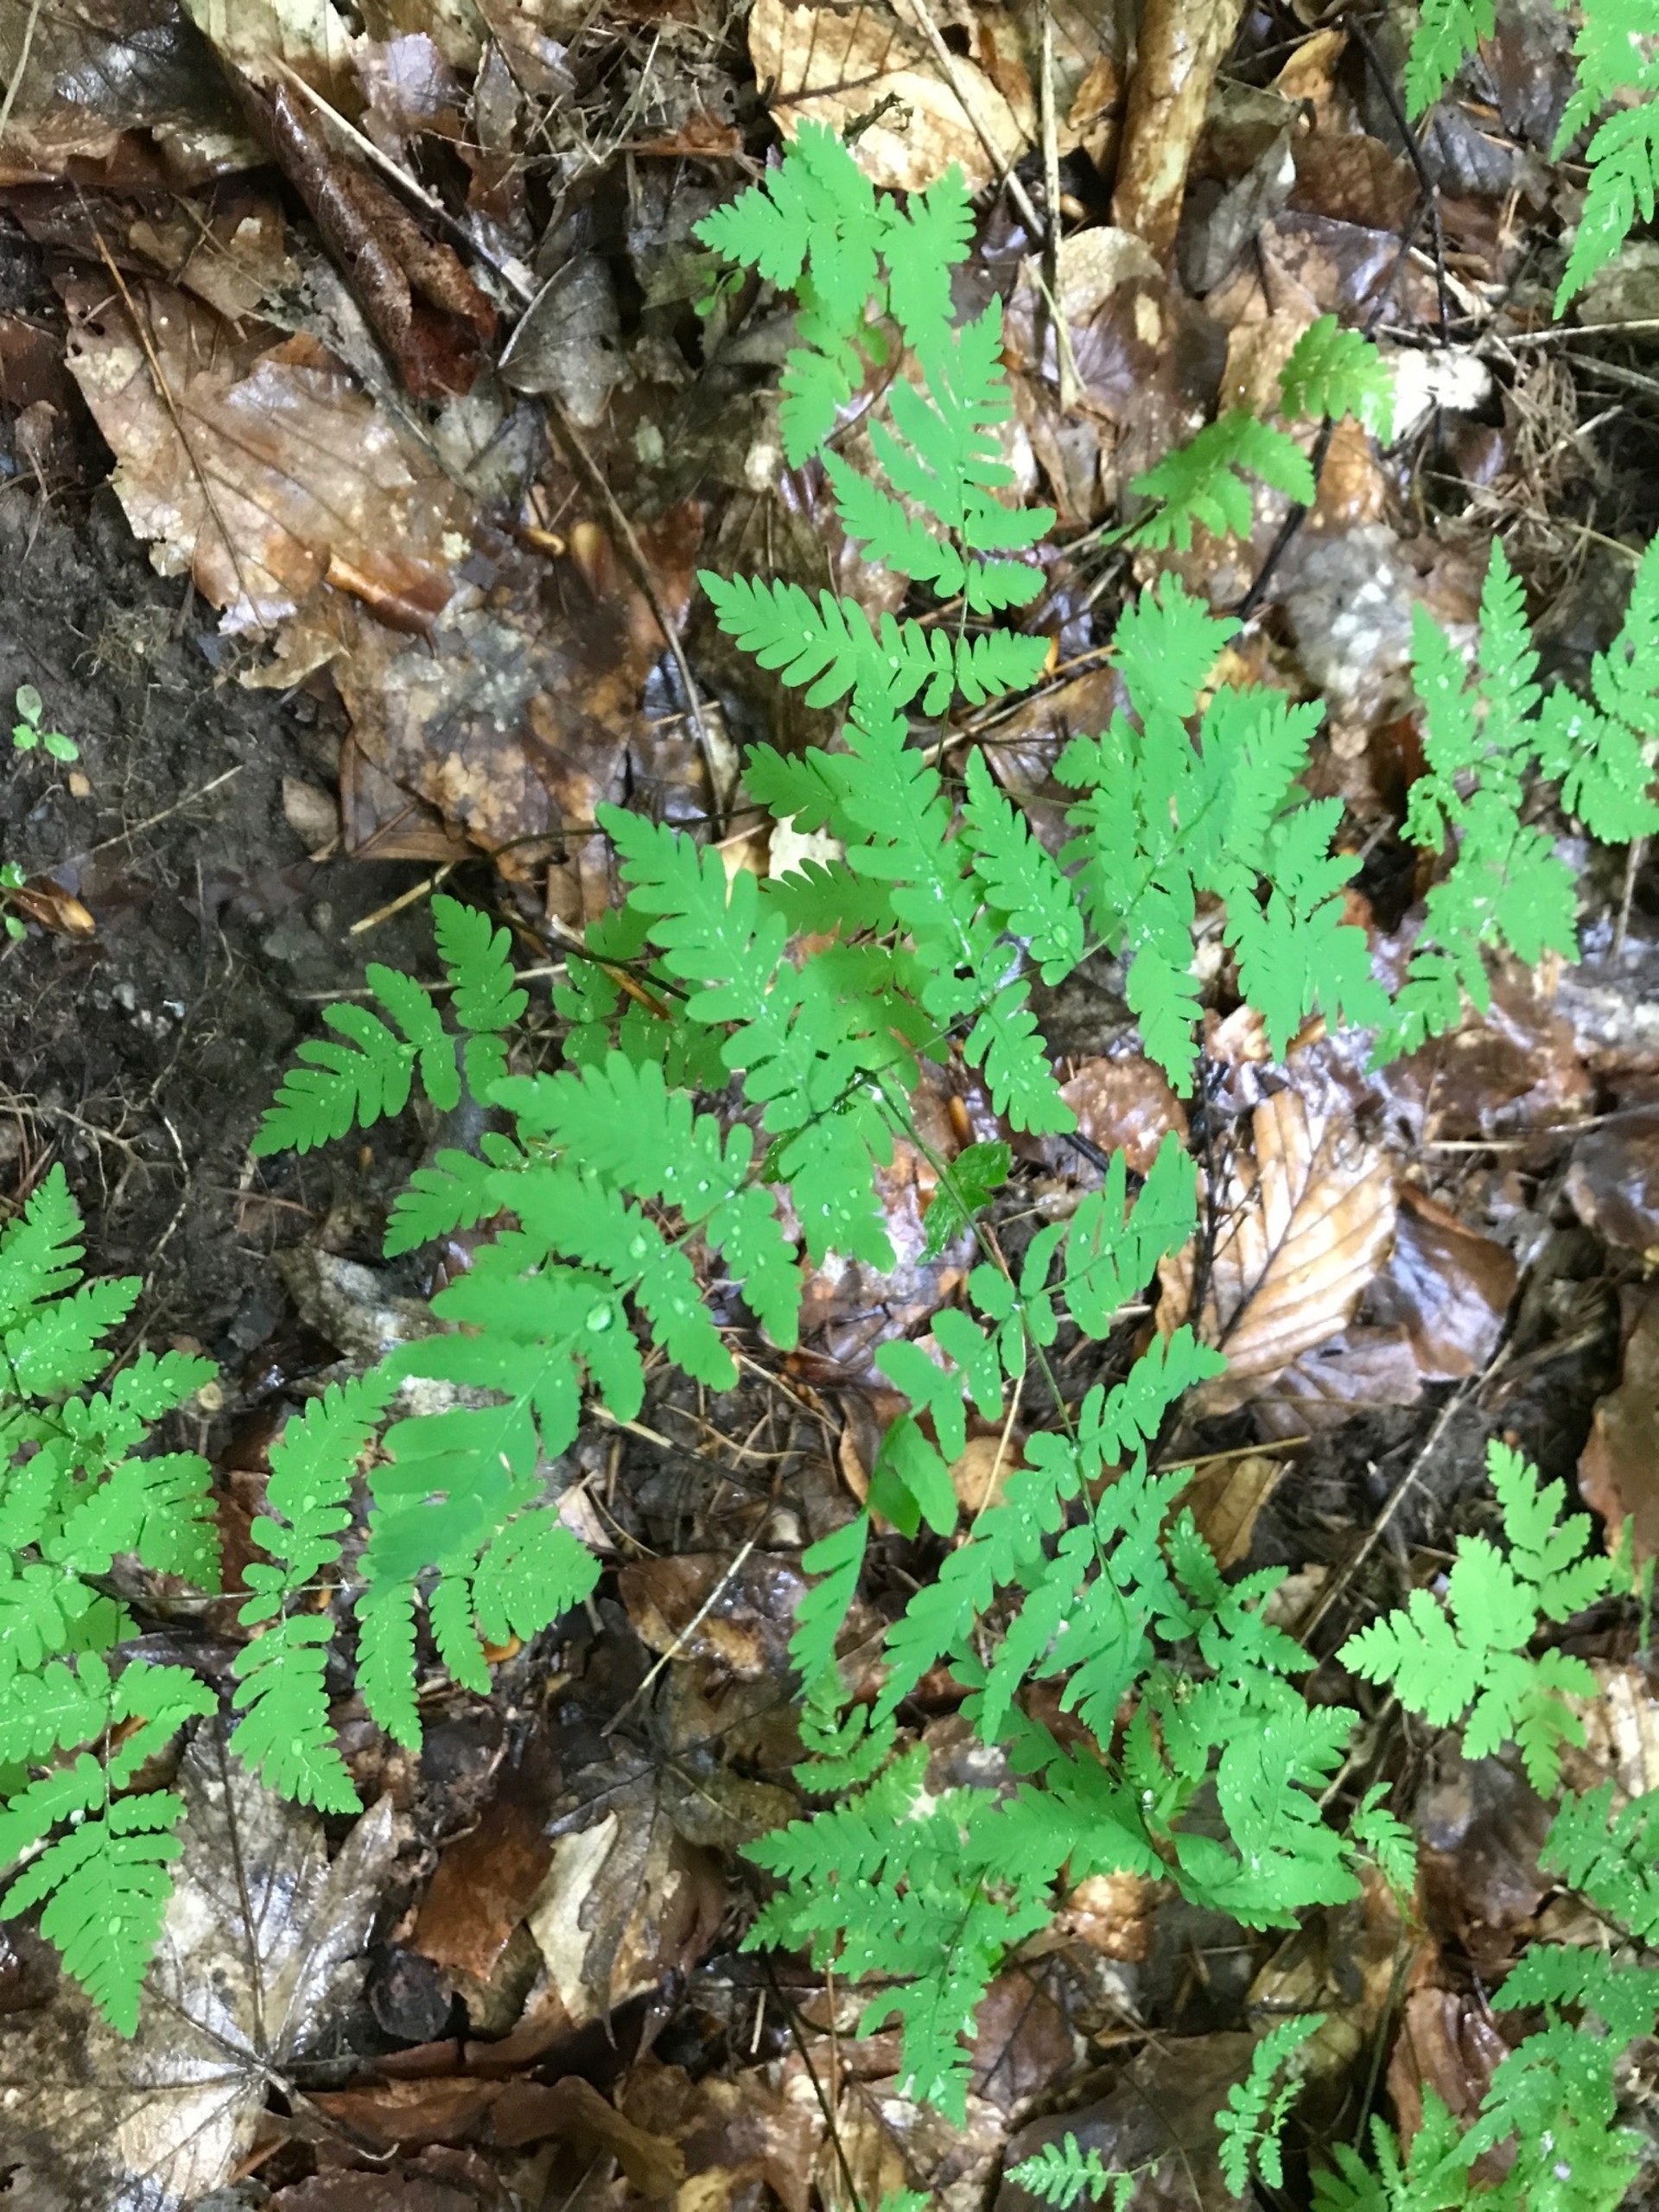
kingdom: Plantae
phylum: Tracheophyta
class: Polypodiopsida
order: Polypodiales
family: Cystopteridaceae
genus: Gymnocarpium
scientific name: Gymnocarpium dryopteris
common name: Tredelt egebregne
